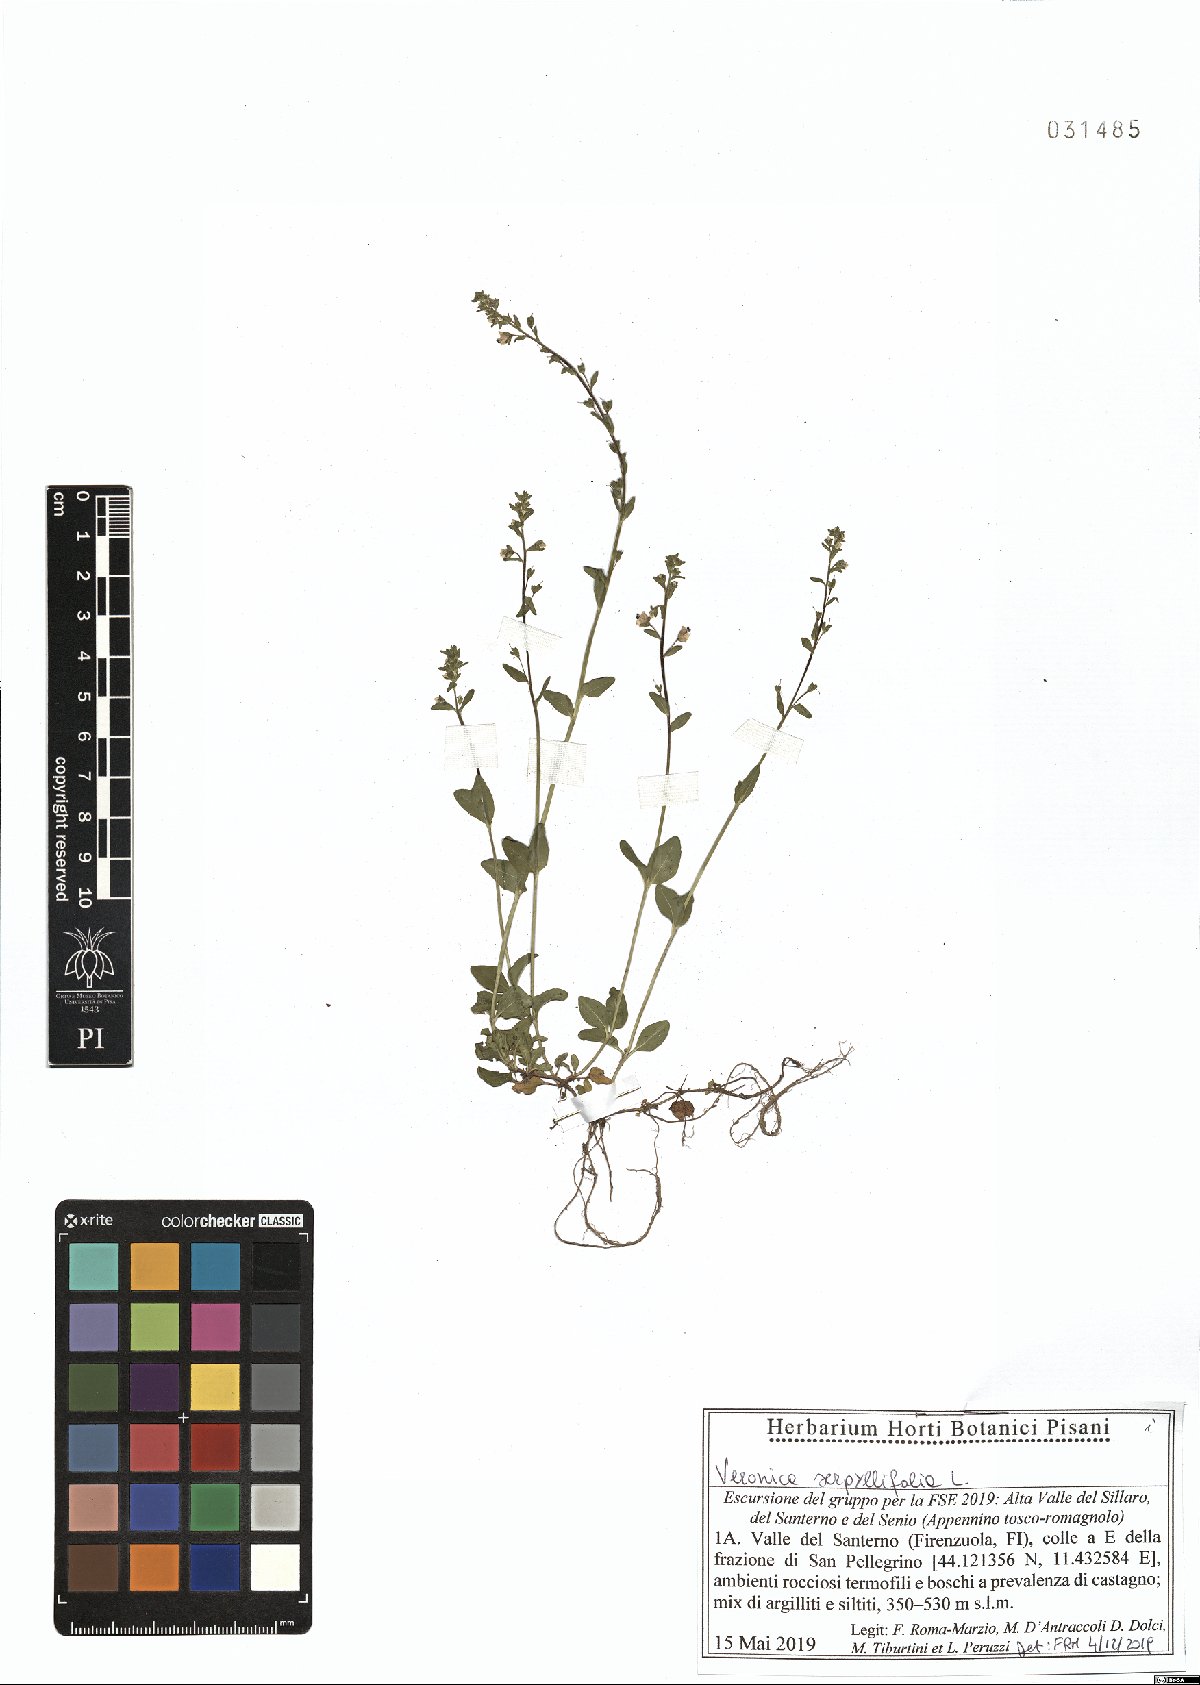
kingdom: Plantae
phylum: Tracheophyta
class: Magnoliopsida
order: Lamiales
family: Plantaginaceae
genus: Veronica
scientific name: Veronica serpyllifolia
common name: Thyme-leaved speedwell
